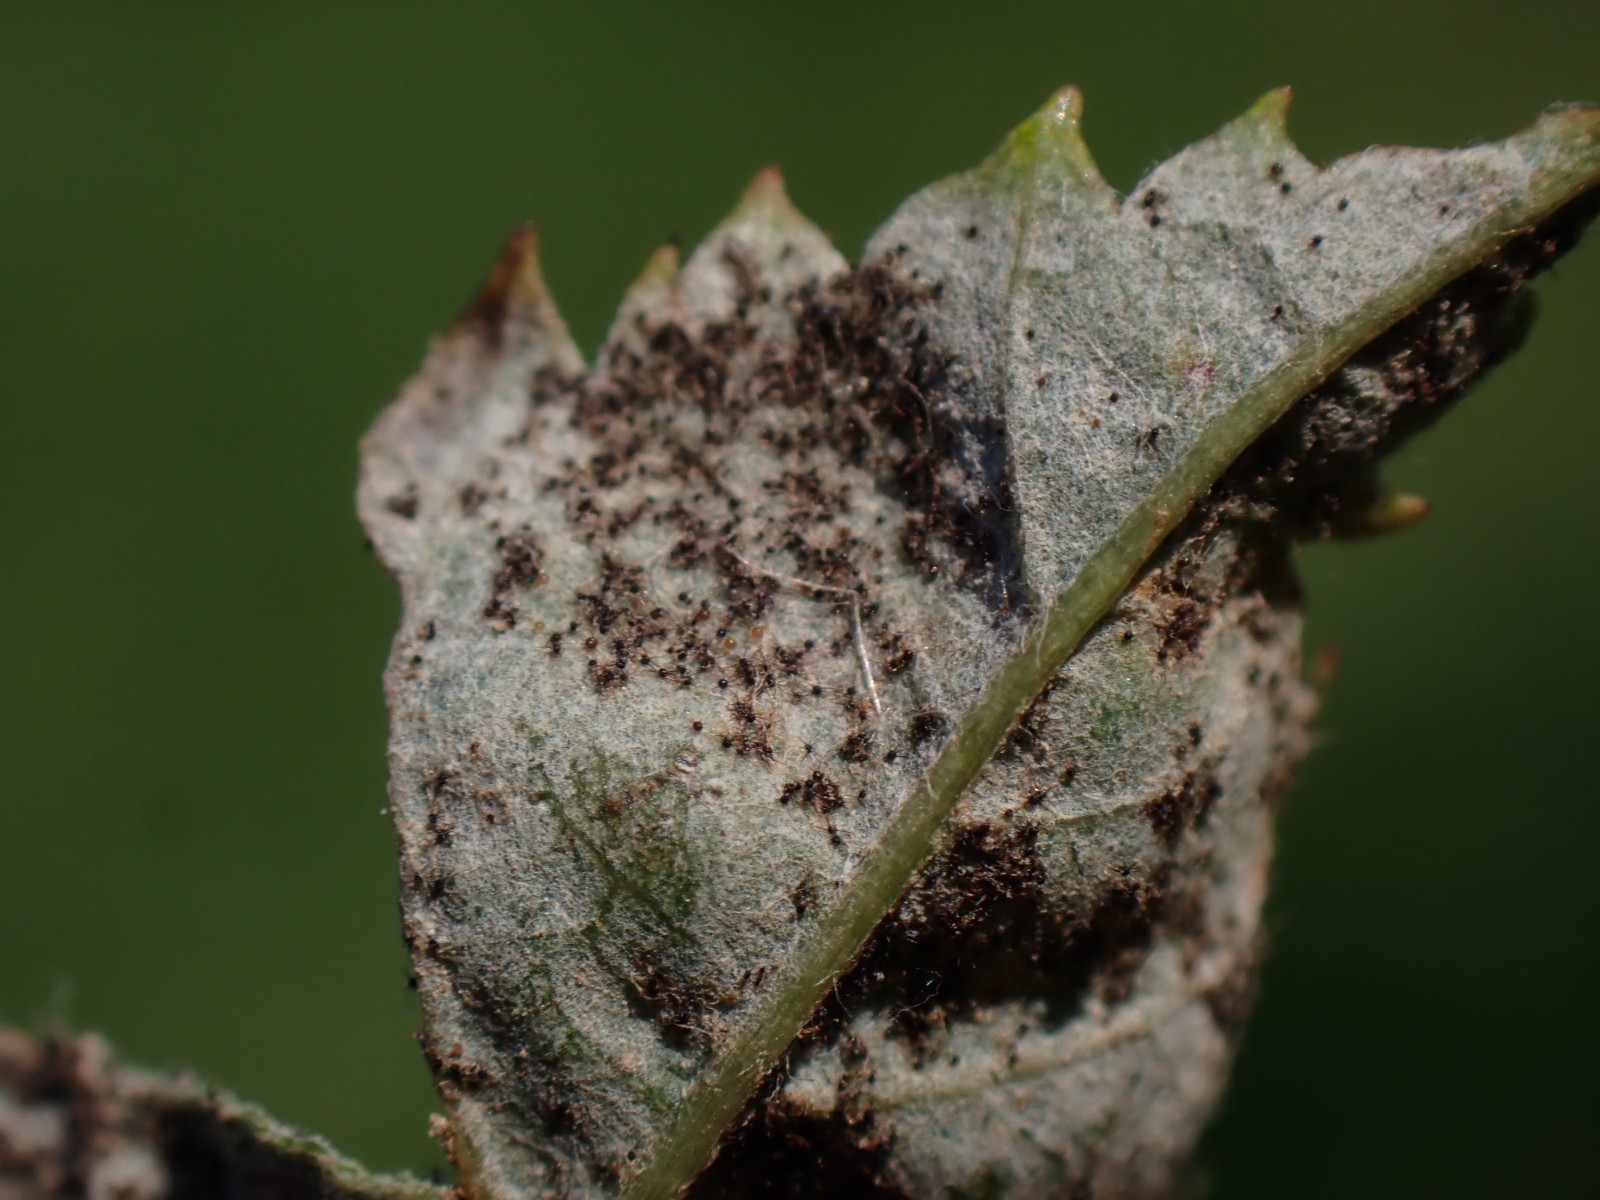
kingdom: Fungi
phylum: Ascomycota
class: Leotiomycetes
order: Helotiales
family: Erysiphaceae
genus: Podosphaera
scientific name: Podosphaera amelanchieris
